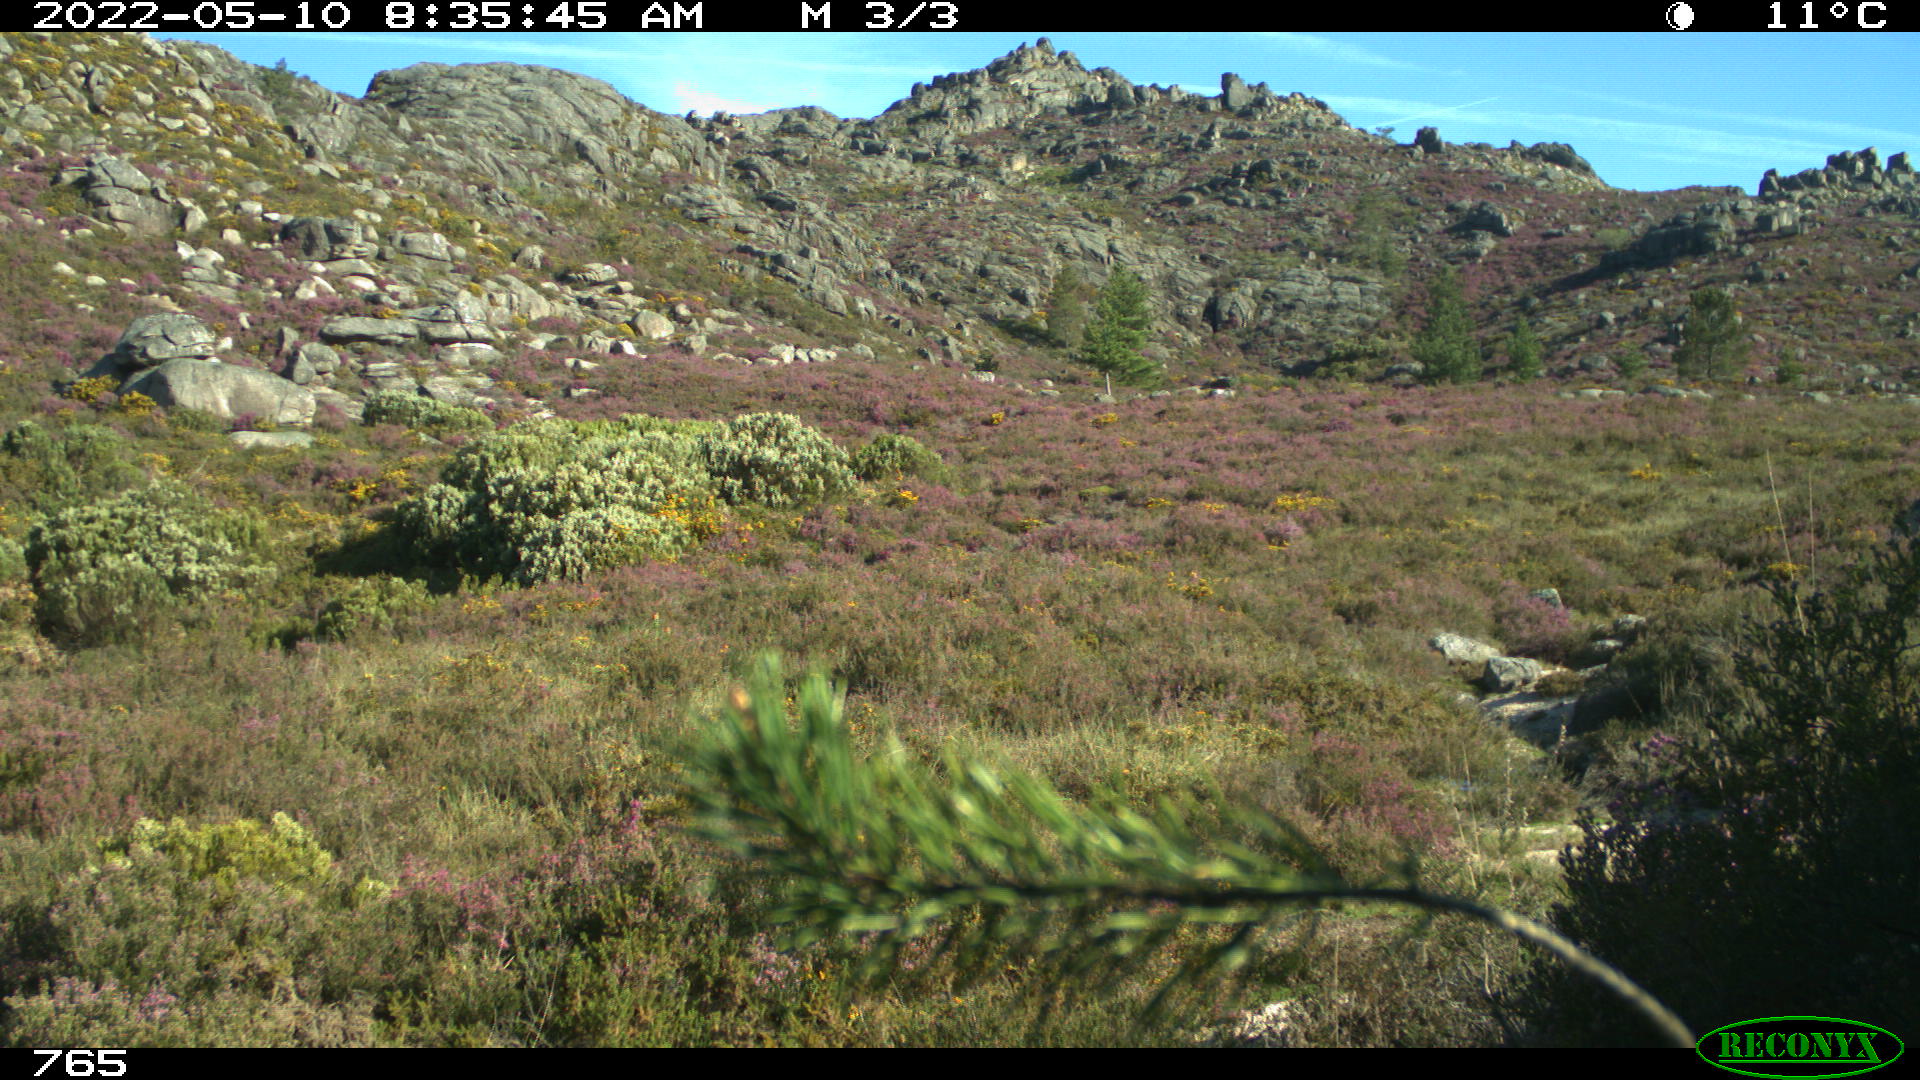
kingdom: Animalia
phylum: Chordata
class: Mammalia
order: Artiodactyla
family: Cervidae
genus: Capreolus
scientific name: Capreolus capreolus
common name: Western roe deer
